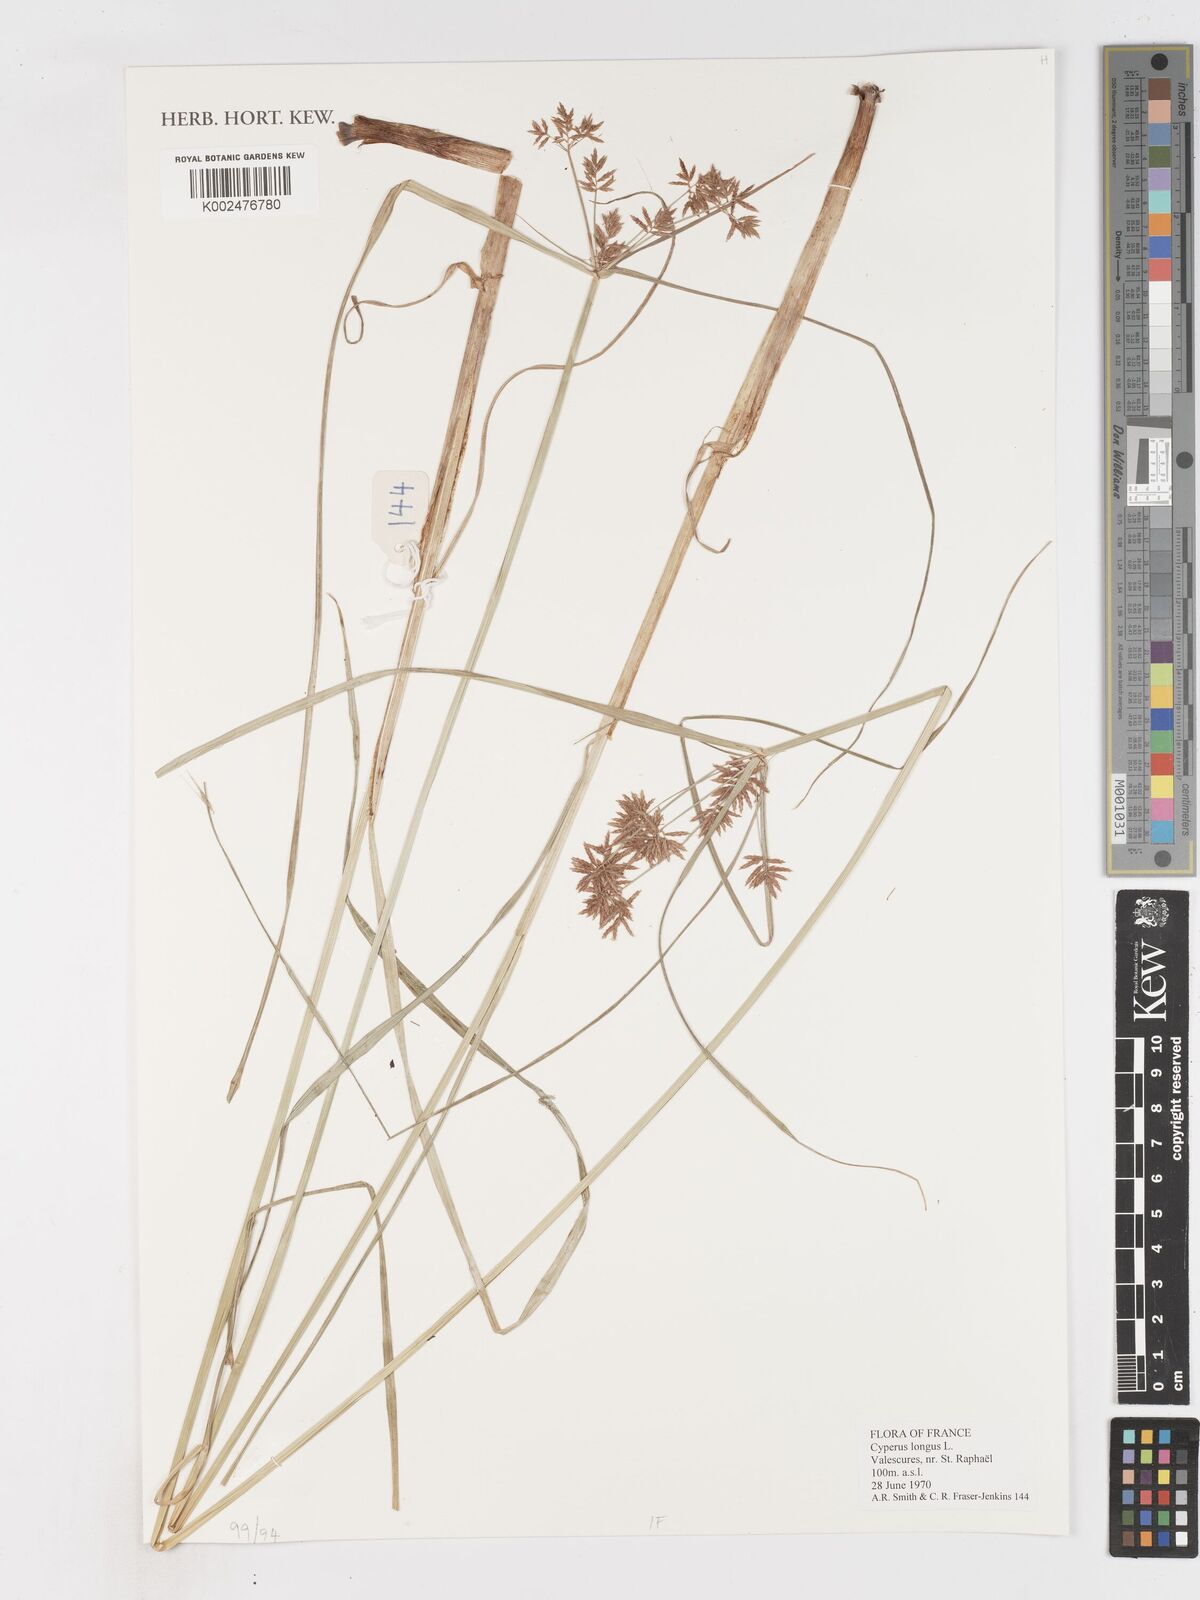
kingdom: Plantae
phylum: Tracheophyta
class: Liliopsida
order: Poales
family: Cyperaceae
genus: Cyperus
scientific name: Cyperus longus
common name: Galingale
